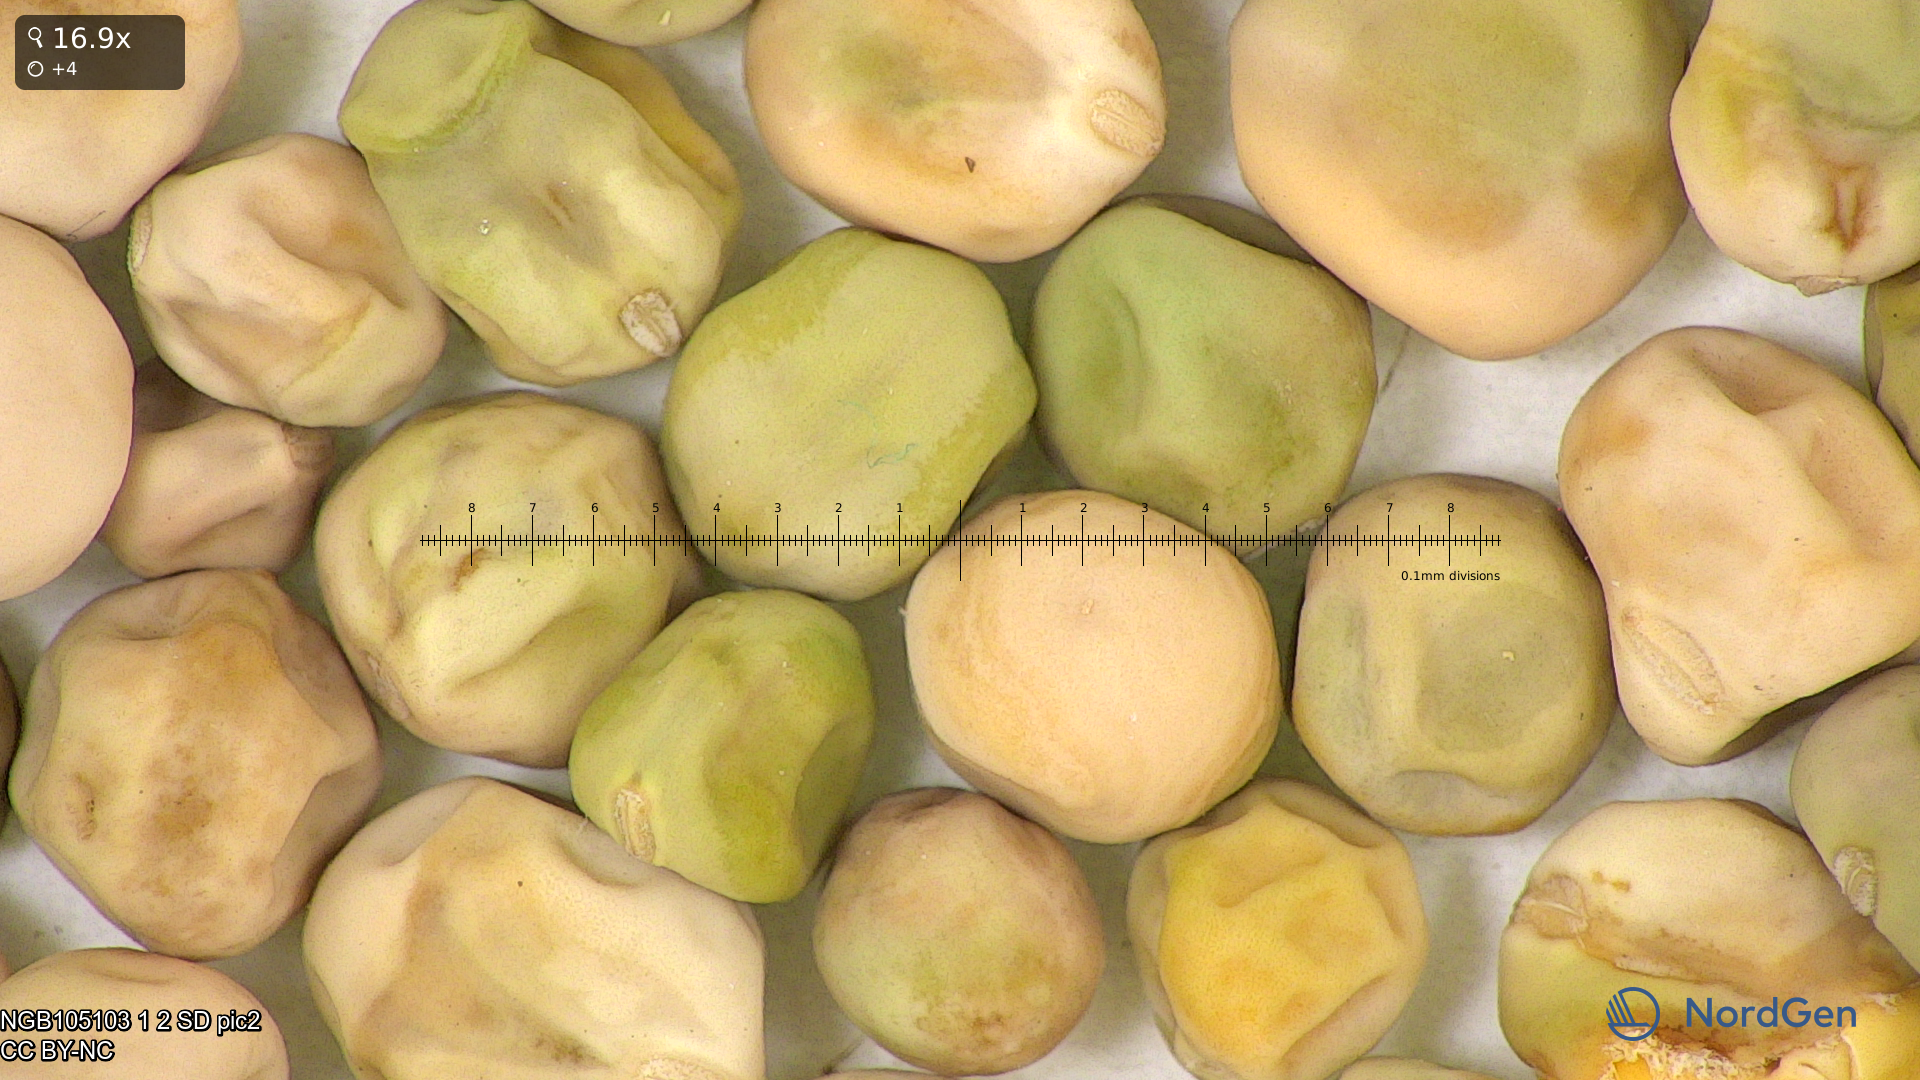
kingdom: Plantae
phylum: Tracheophyta
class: Magnoliopsida
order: Fabales
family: Fabaceae
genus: Lathyrus
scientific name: Lathyrus oleraceus
